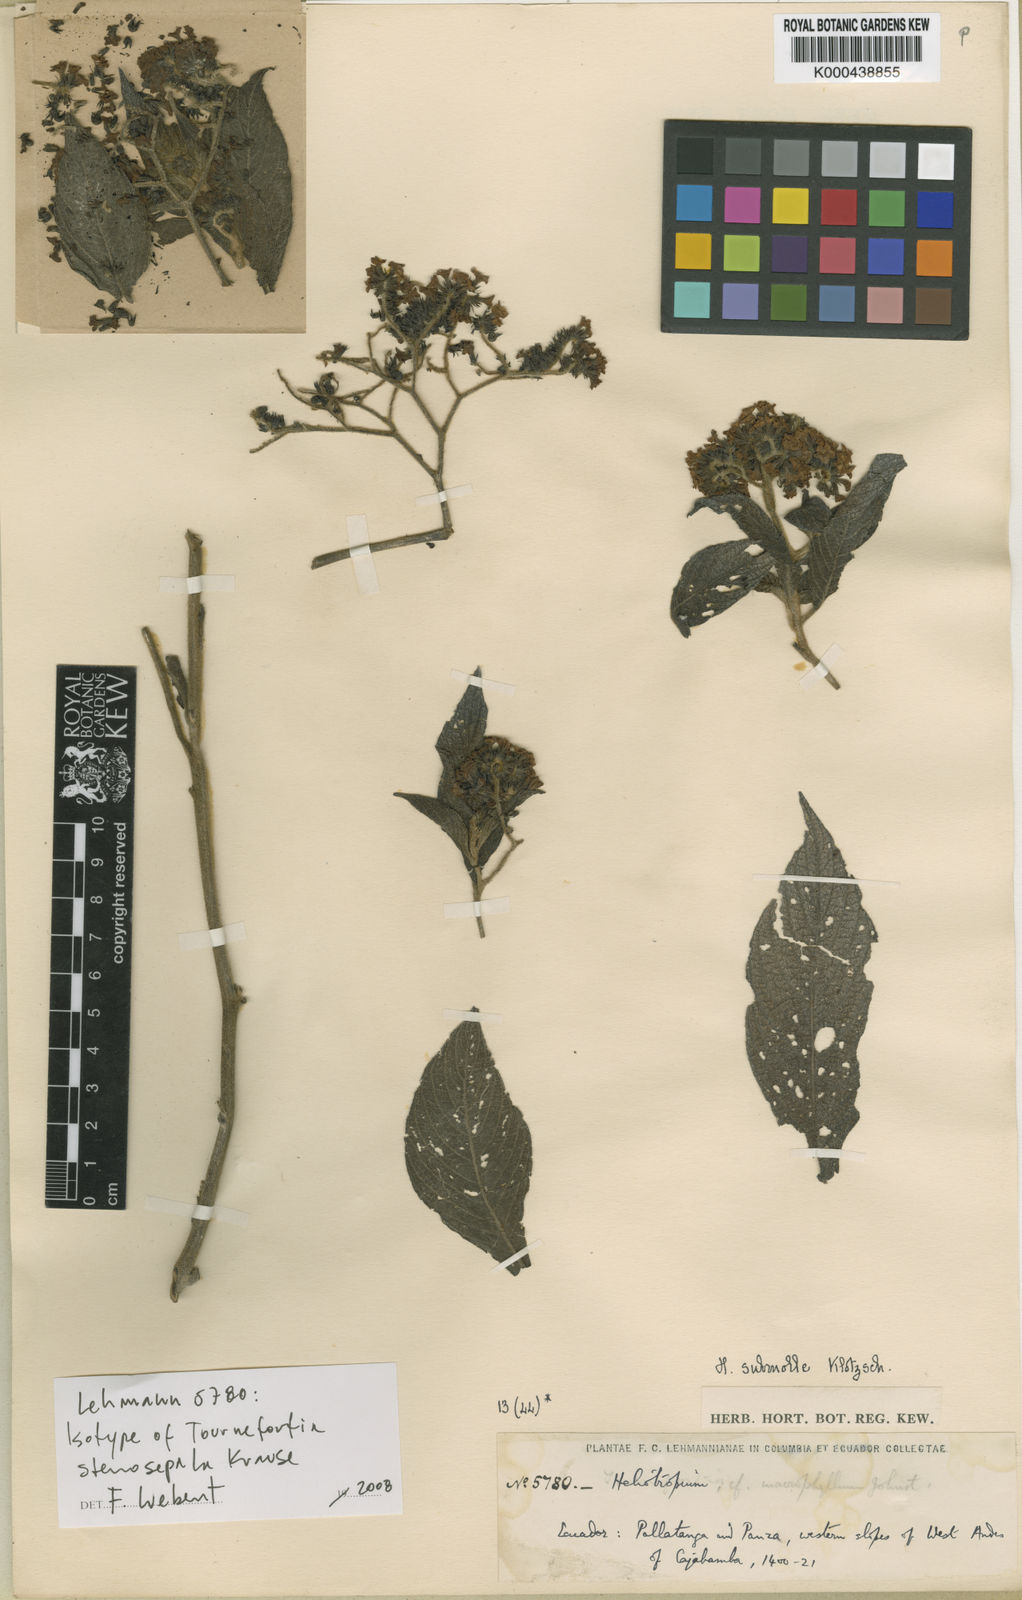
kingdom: Plantae
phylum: Tracheophyta
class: Magnoliopsida
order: Boraginales
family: Heliotropiaceae
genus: Tournefortia
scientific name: Tournefortia stenosepala
